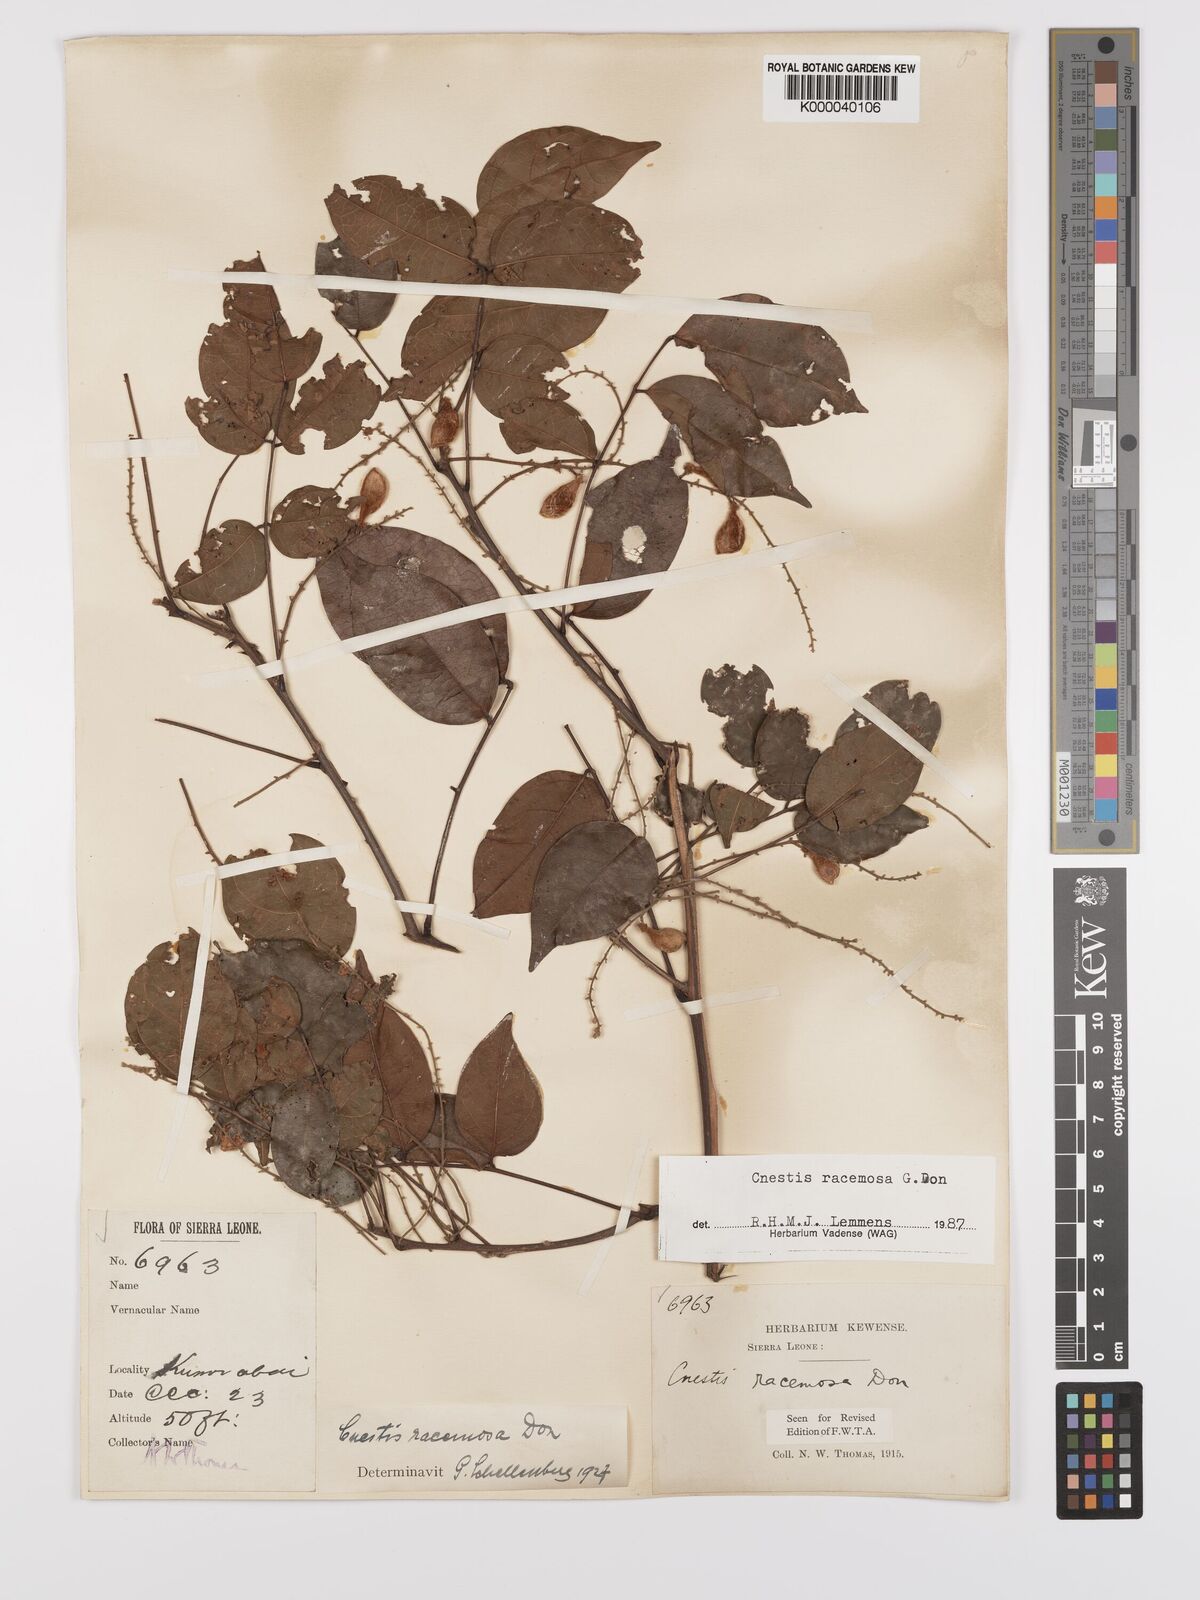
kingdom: Plantae
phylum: Tracheophyta
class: Magnoliopsida
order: Oxalidales
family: Connaraceae
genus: Cnestis
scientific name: Cnestis racemosa
